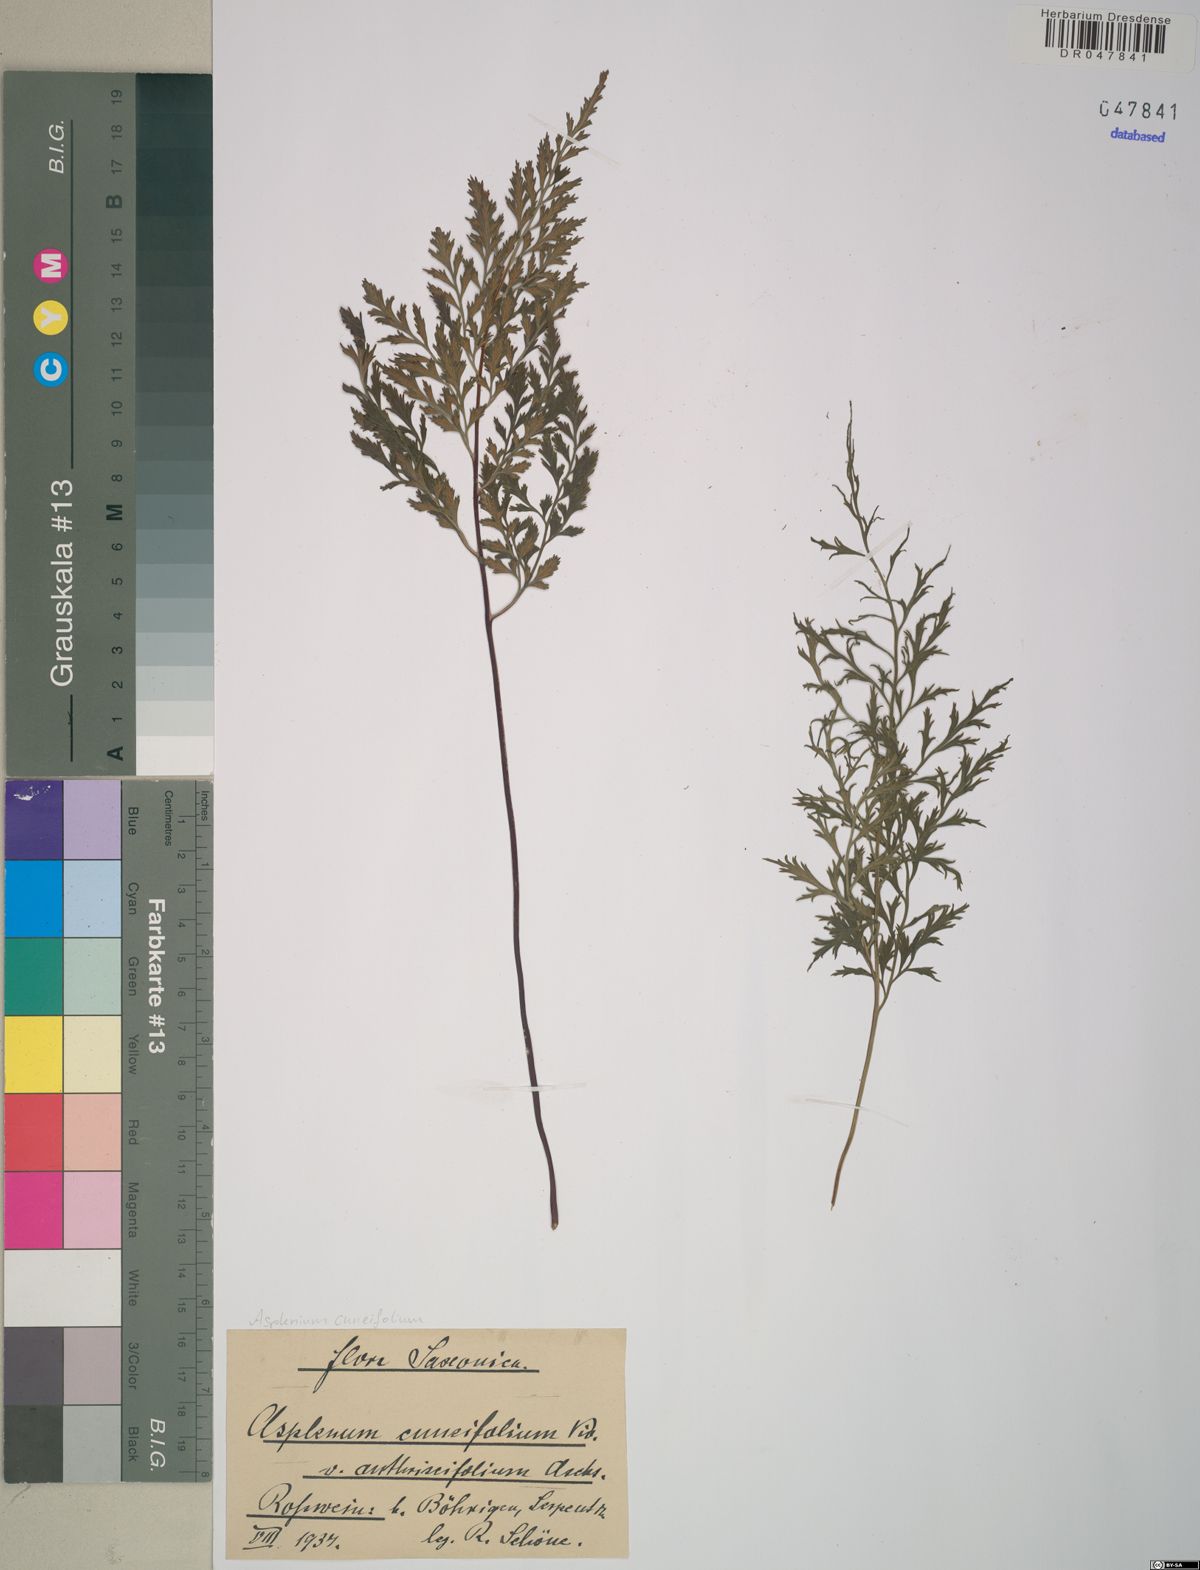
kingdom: Plantae
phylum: Tracheophyta
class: Polypodiopsida
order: Polypodiales
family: Aspleniaceae
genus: Asplenium
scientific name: Asplenium cuneifolium
